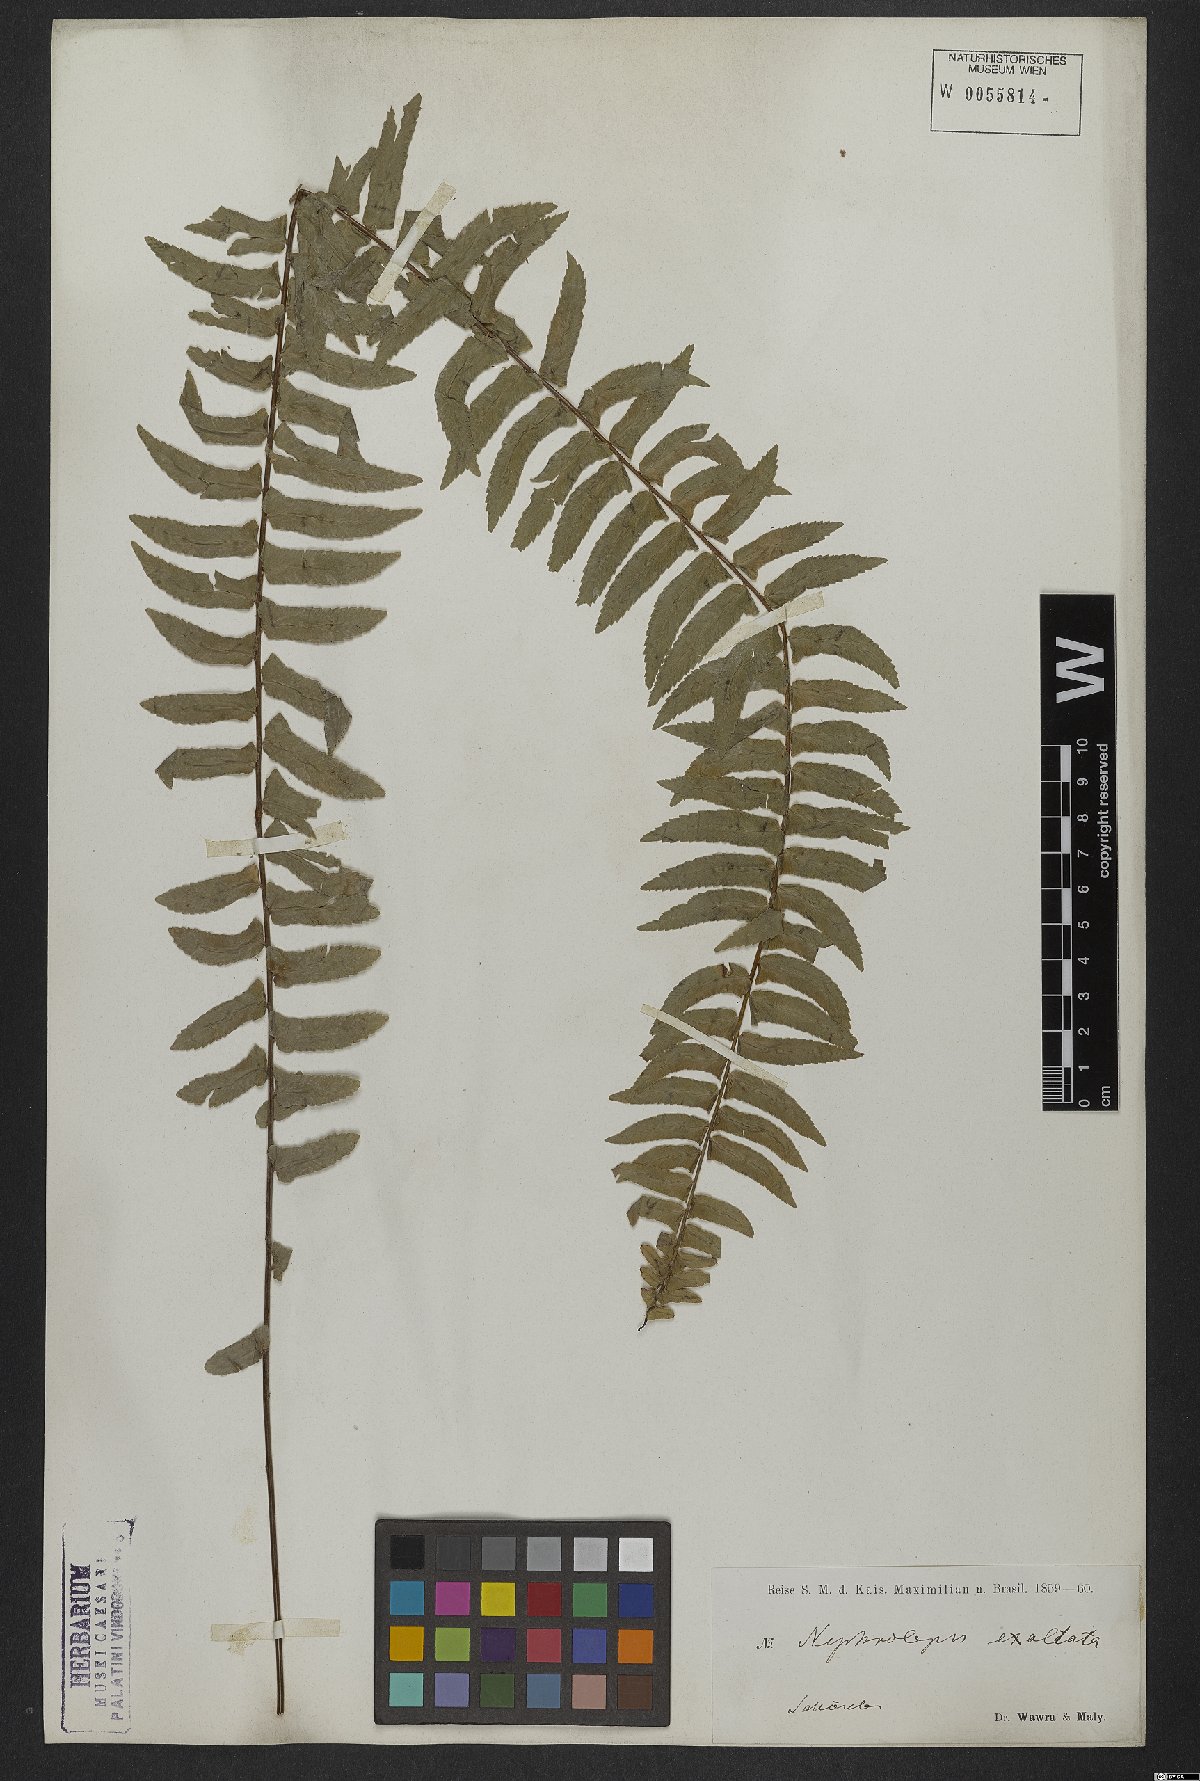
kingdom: Plantae
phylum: Tracheophyta
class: Polypodiopsida
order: Polypodiales
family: Nephrolepidaceae
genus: Nephrolepis
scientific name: Nephrolepis exaltata
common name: Sword fern
